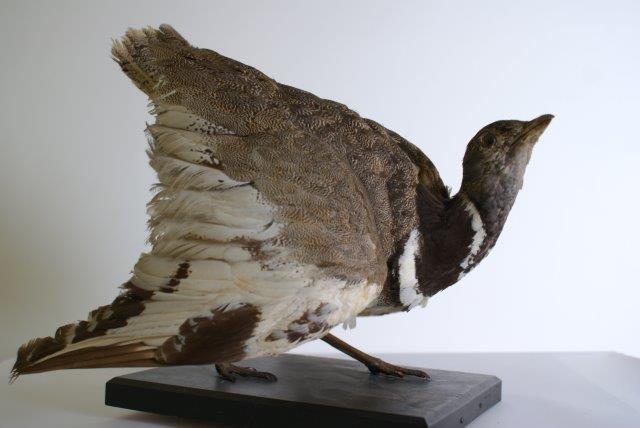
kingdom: Animalia
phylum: Chordata
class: Aves
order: Otidiformes
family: Otididae
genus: Tetrax
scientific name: Tetrax tetrax
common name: Little bustard
